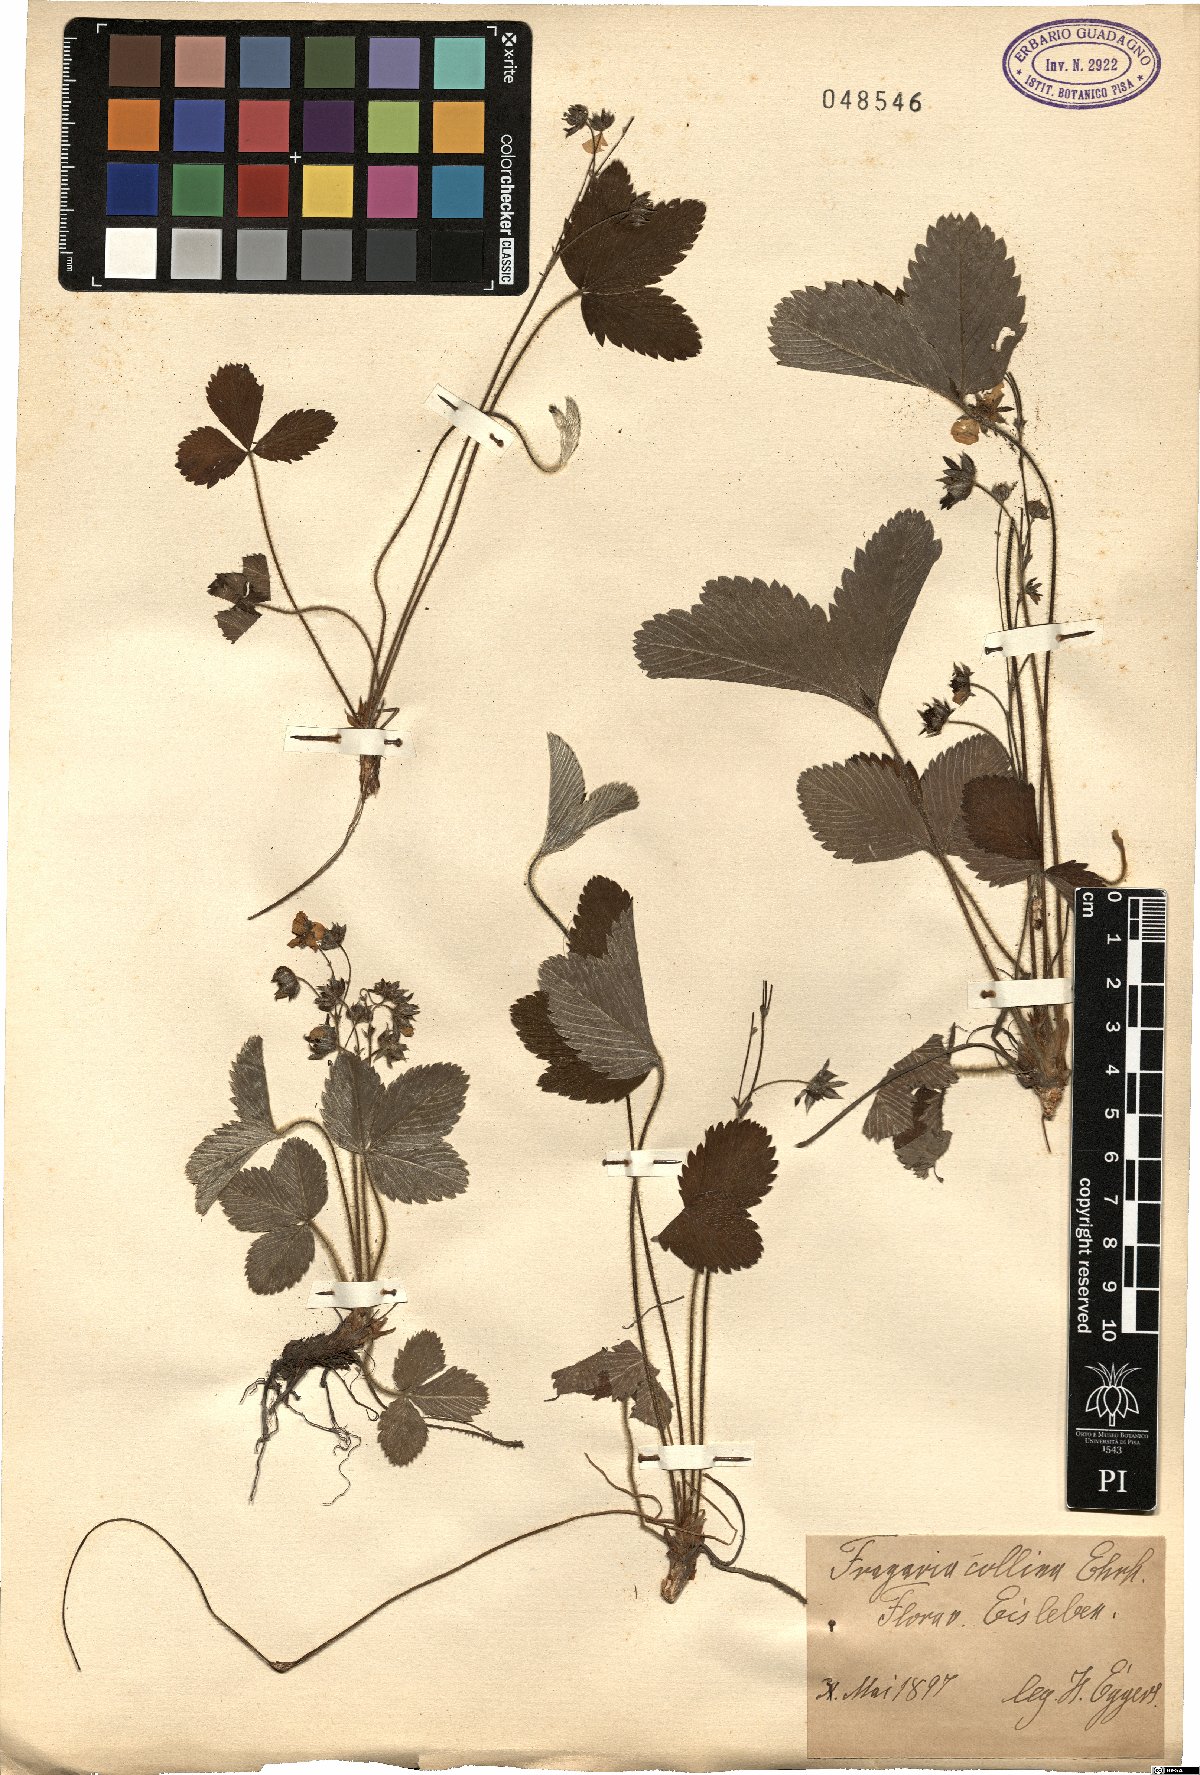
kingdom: Plantae
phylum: Tracheophyta
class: Magnoliopsida
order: Rosales
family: Rosaceae
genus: Fragaria
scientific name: Fragaria viridis
